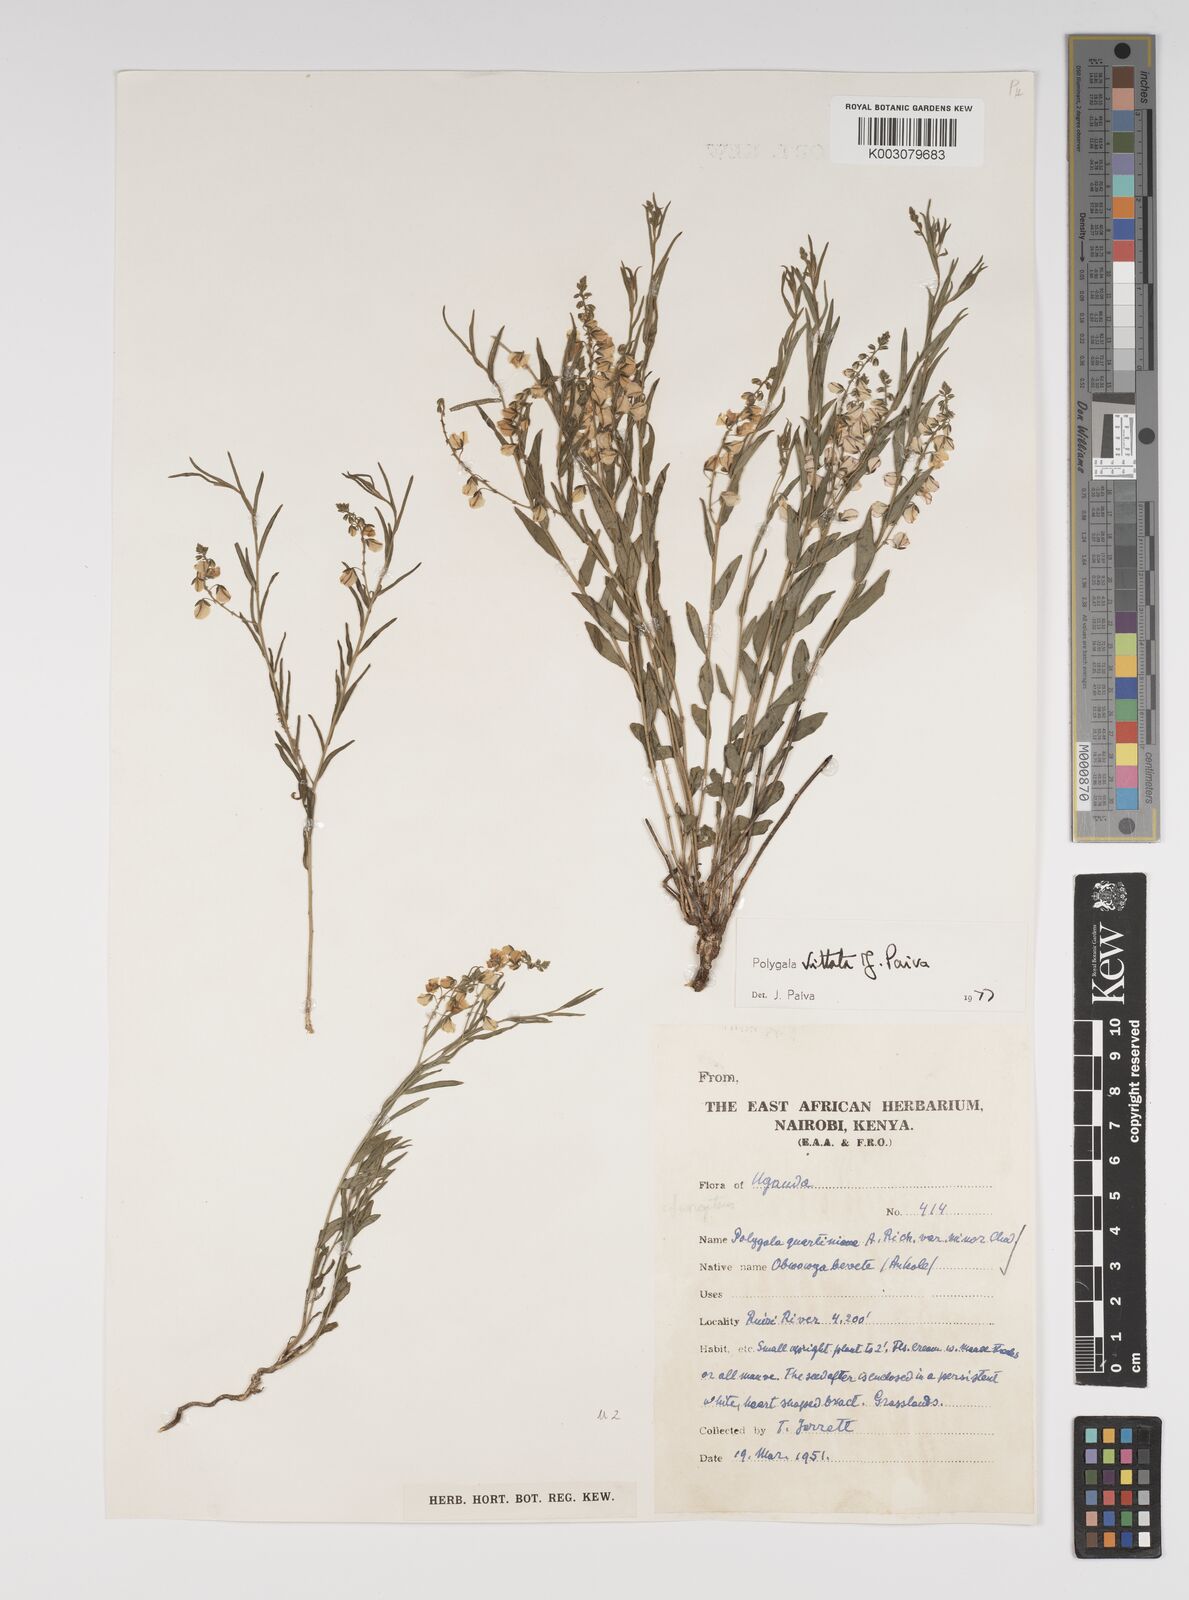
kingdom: Plantae
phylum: Tracheophyta
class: Magnoliopsida
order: Fabales
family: Polygalaceae
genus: Polygala
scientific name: Polygala vittata
